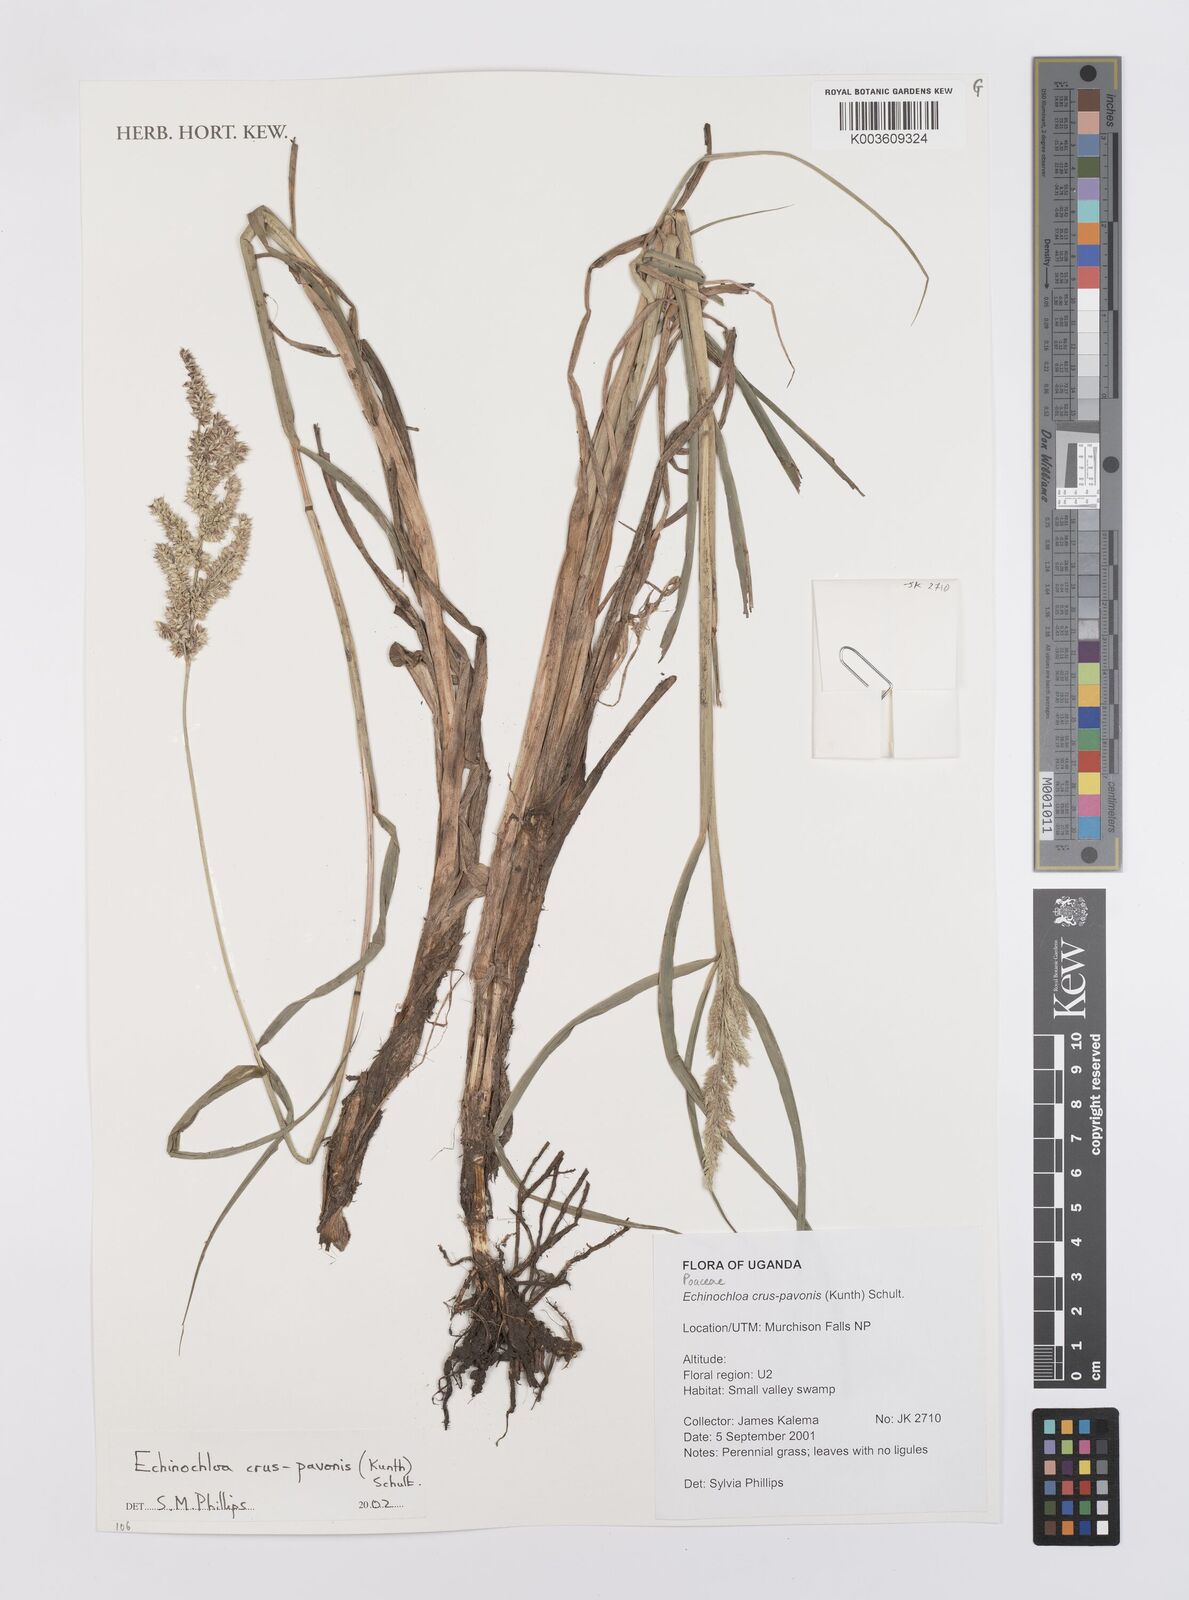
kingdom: Plantae
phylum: Tracheophyta
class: Liliopsida
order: Poales
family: Poaceae
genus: Echinochloa
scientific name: Echinochloa crus-pavonis
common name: Gulf cockspur grass
